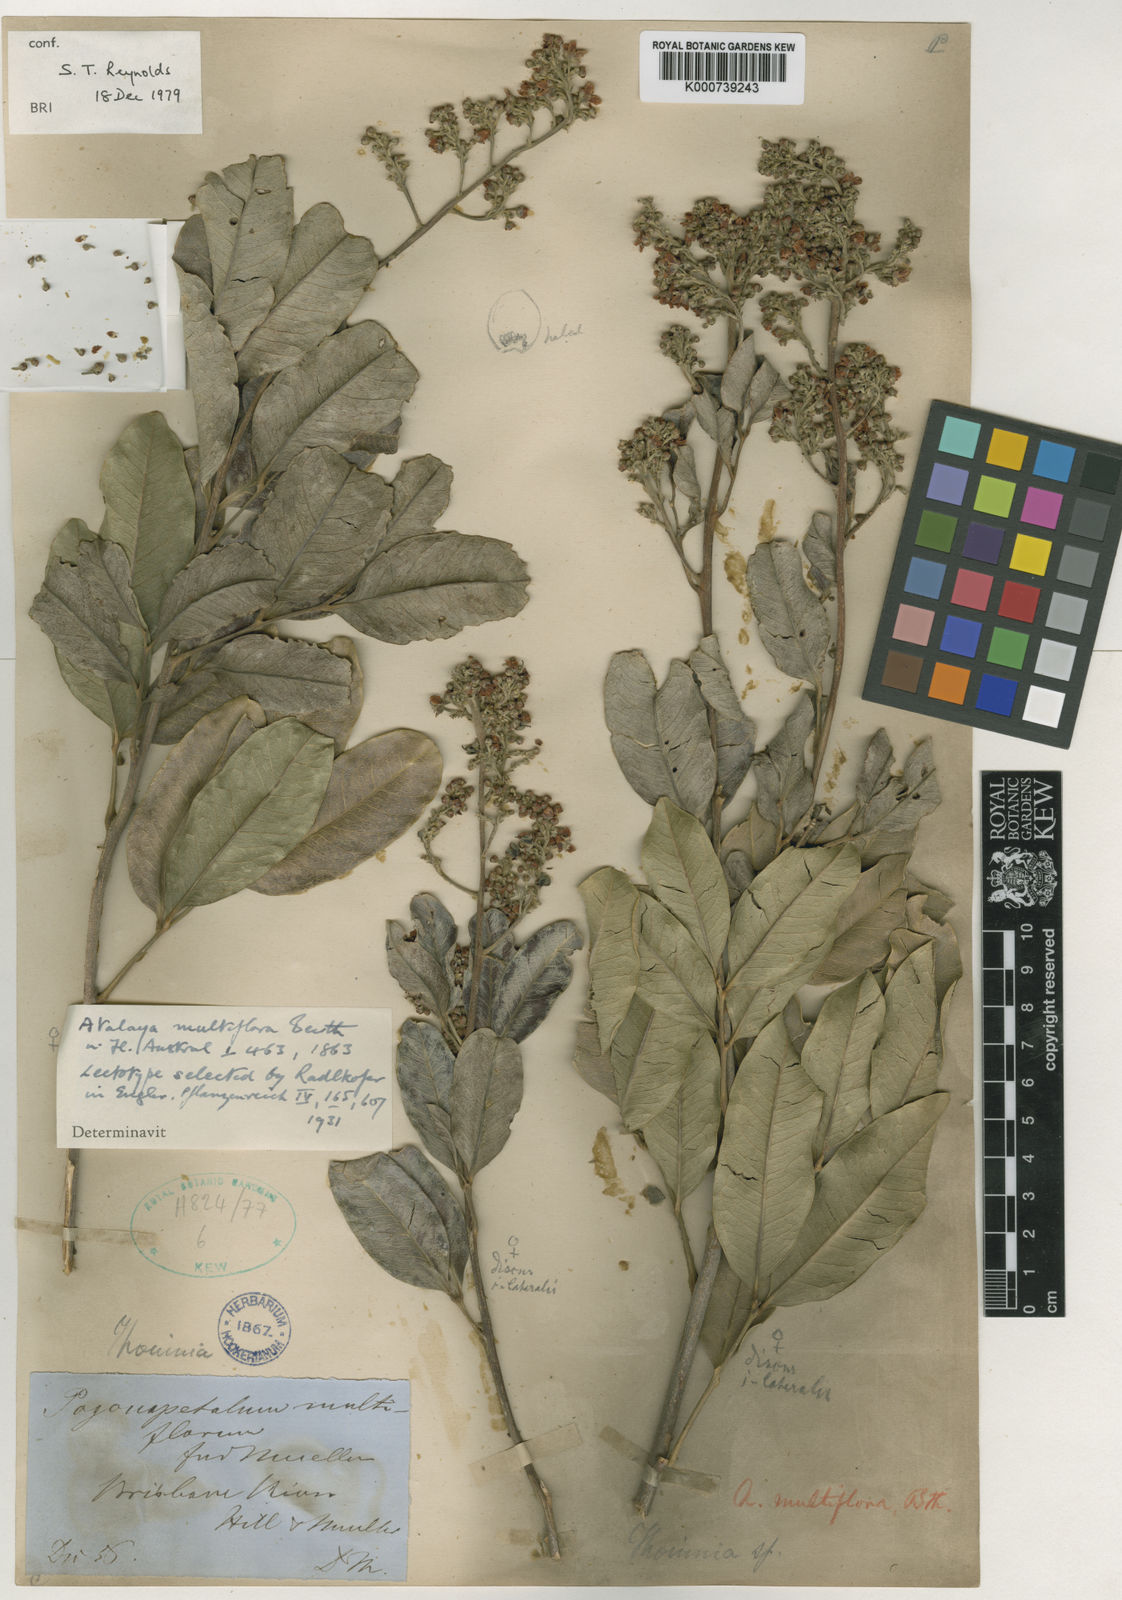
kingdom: Plantae
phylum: Tracheophyta
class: Magnoliopsida
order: Sapindales
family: Sapindaceae
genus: Atalaya
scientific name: Atalaya multiflora
